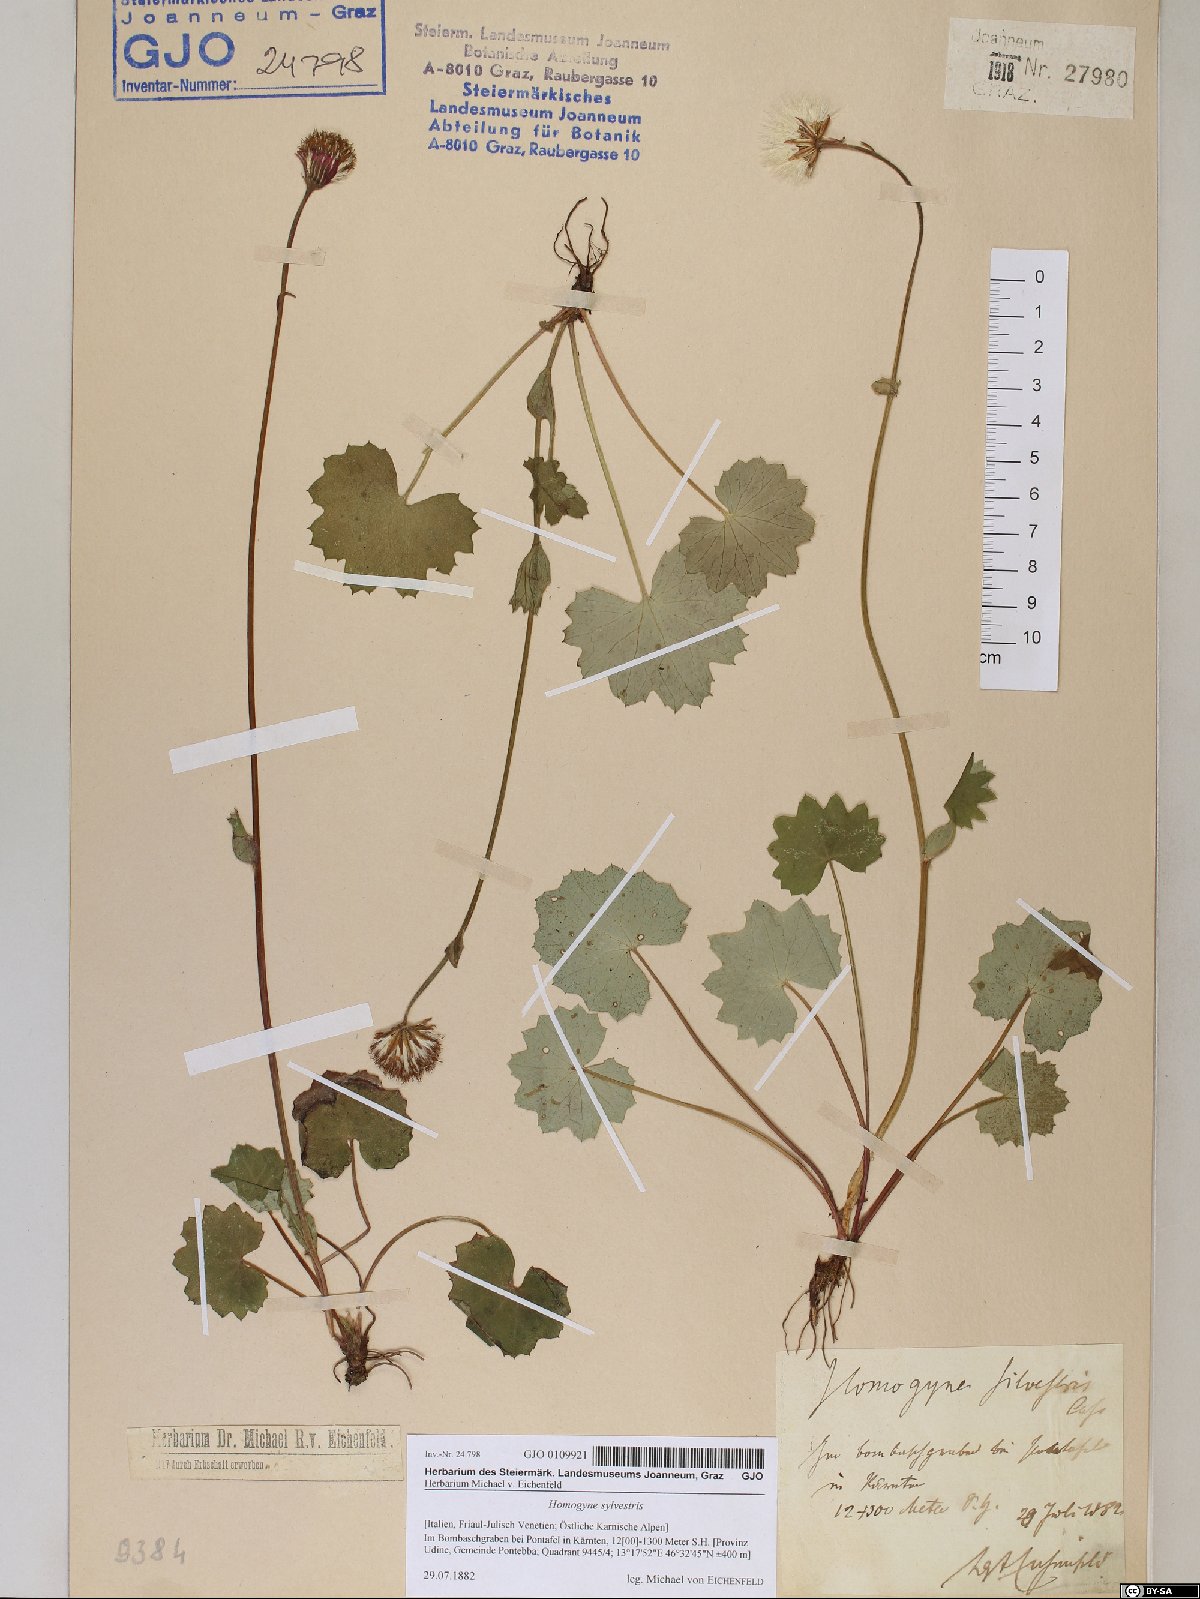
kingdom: Plantae
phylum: Tracheophyta
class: Magnoliopsida
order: Asterales
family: Asteraceae
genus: Homogyne
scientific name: Homogyne sylvestris
